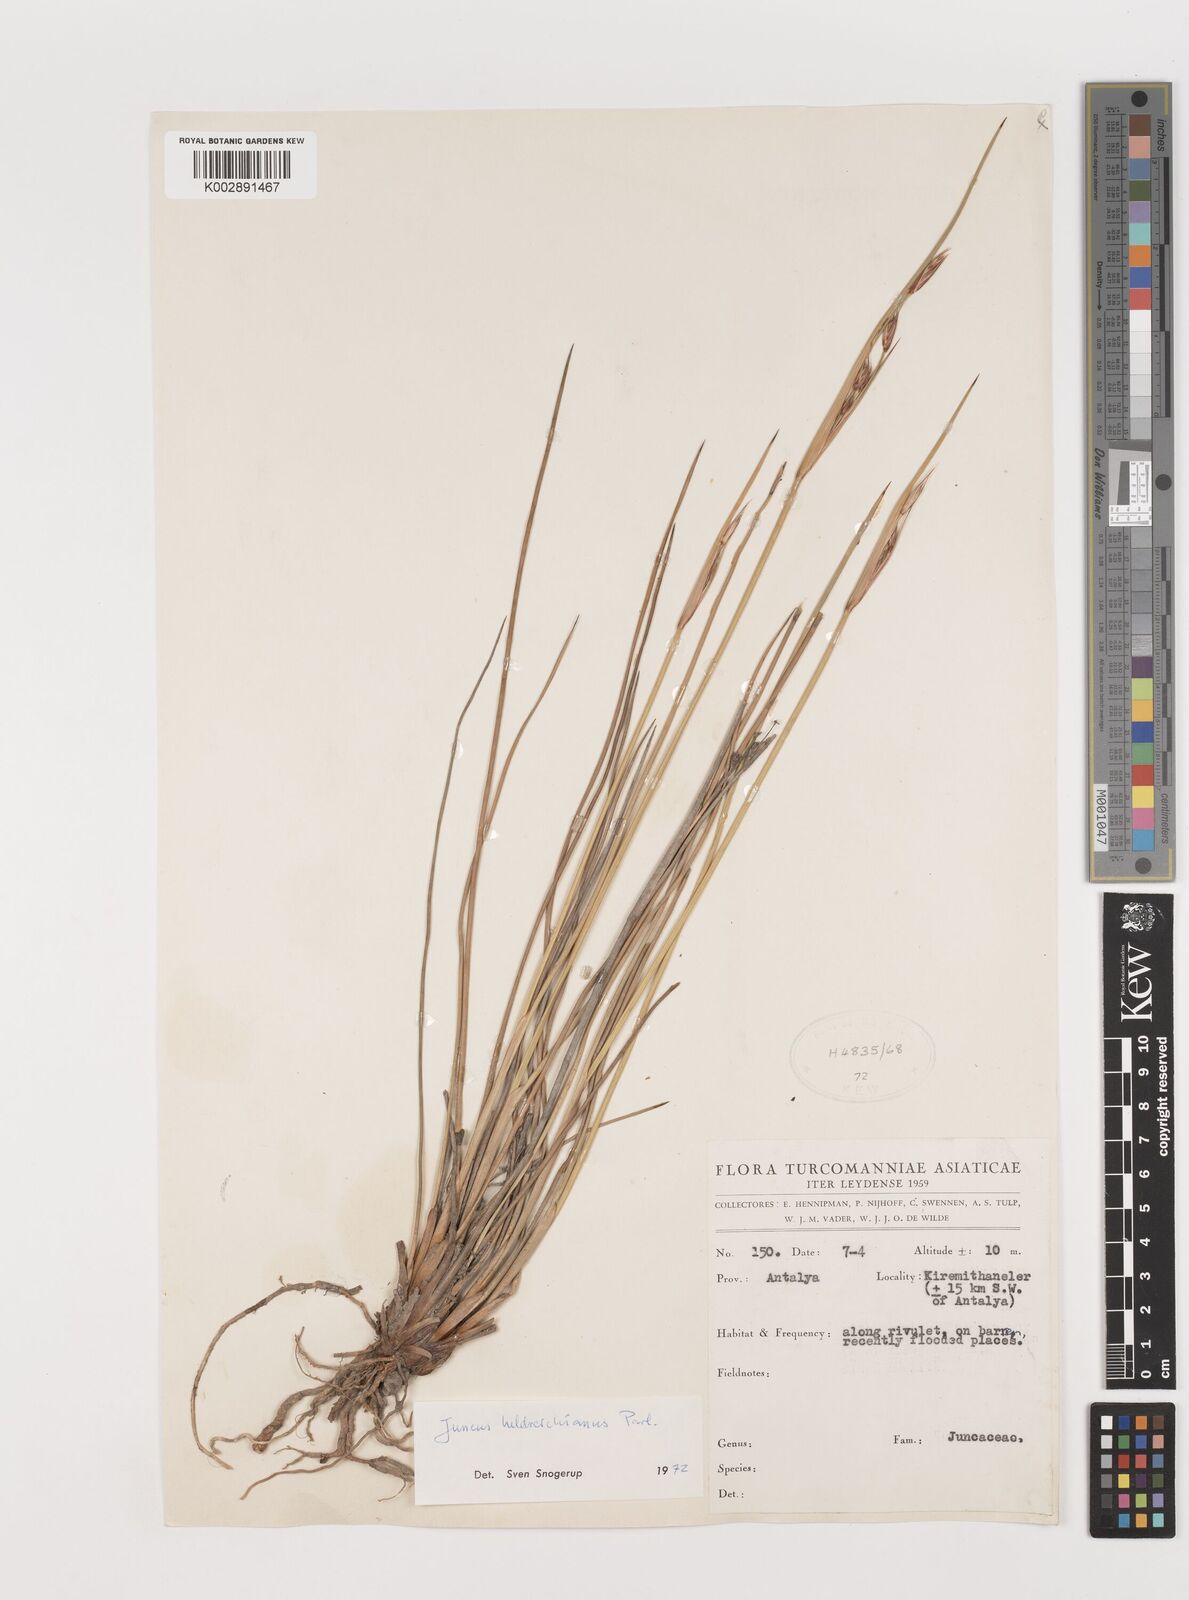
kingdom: Plantae
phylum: Tracheophyta
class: Liliopsida
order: Poales
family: Juncaceae
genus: Juncus
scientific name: Juncus heldreichianus
